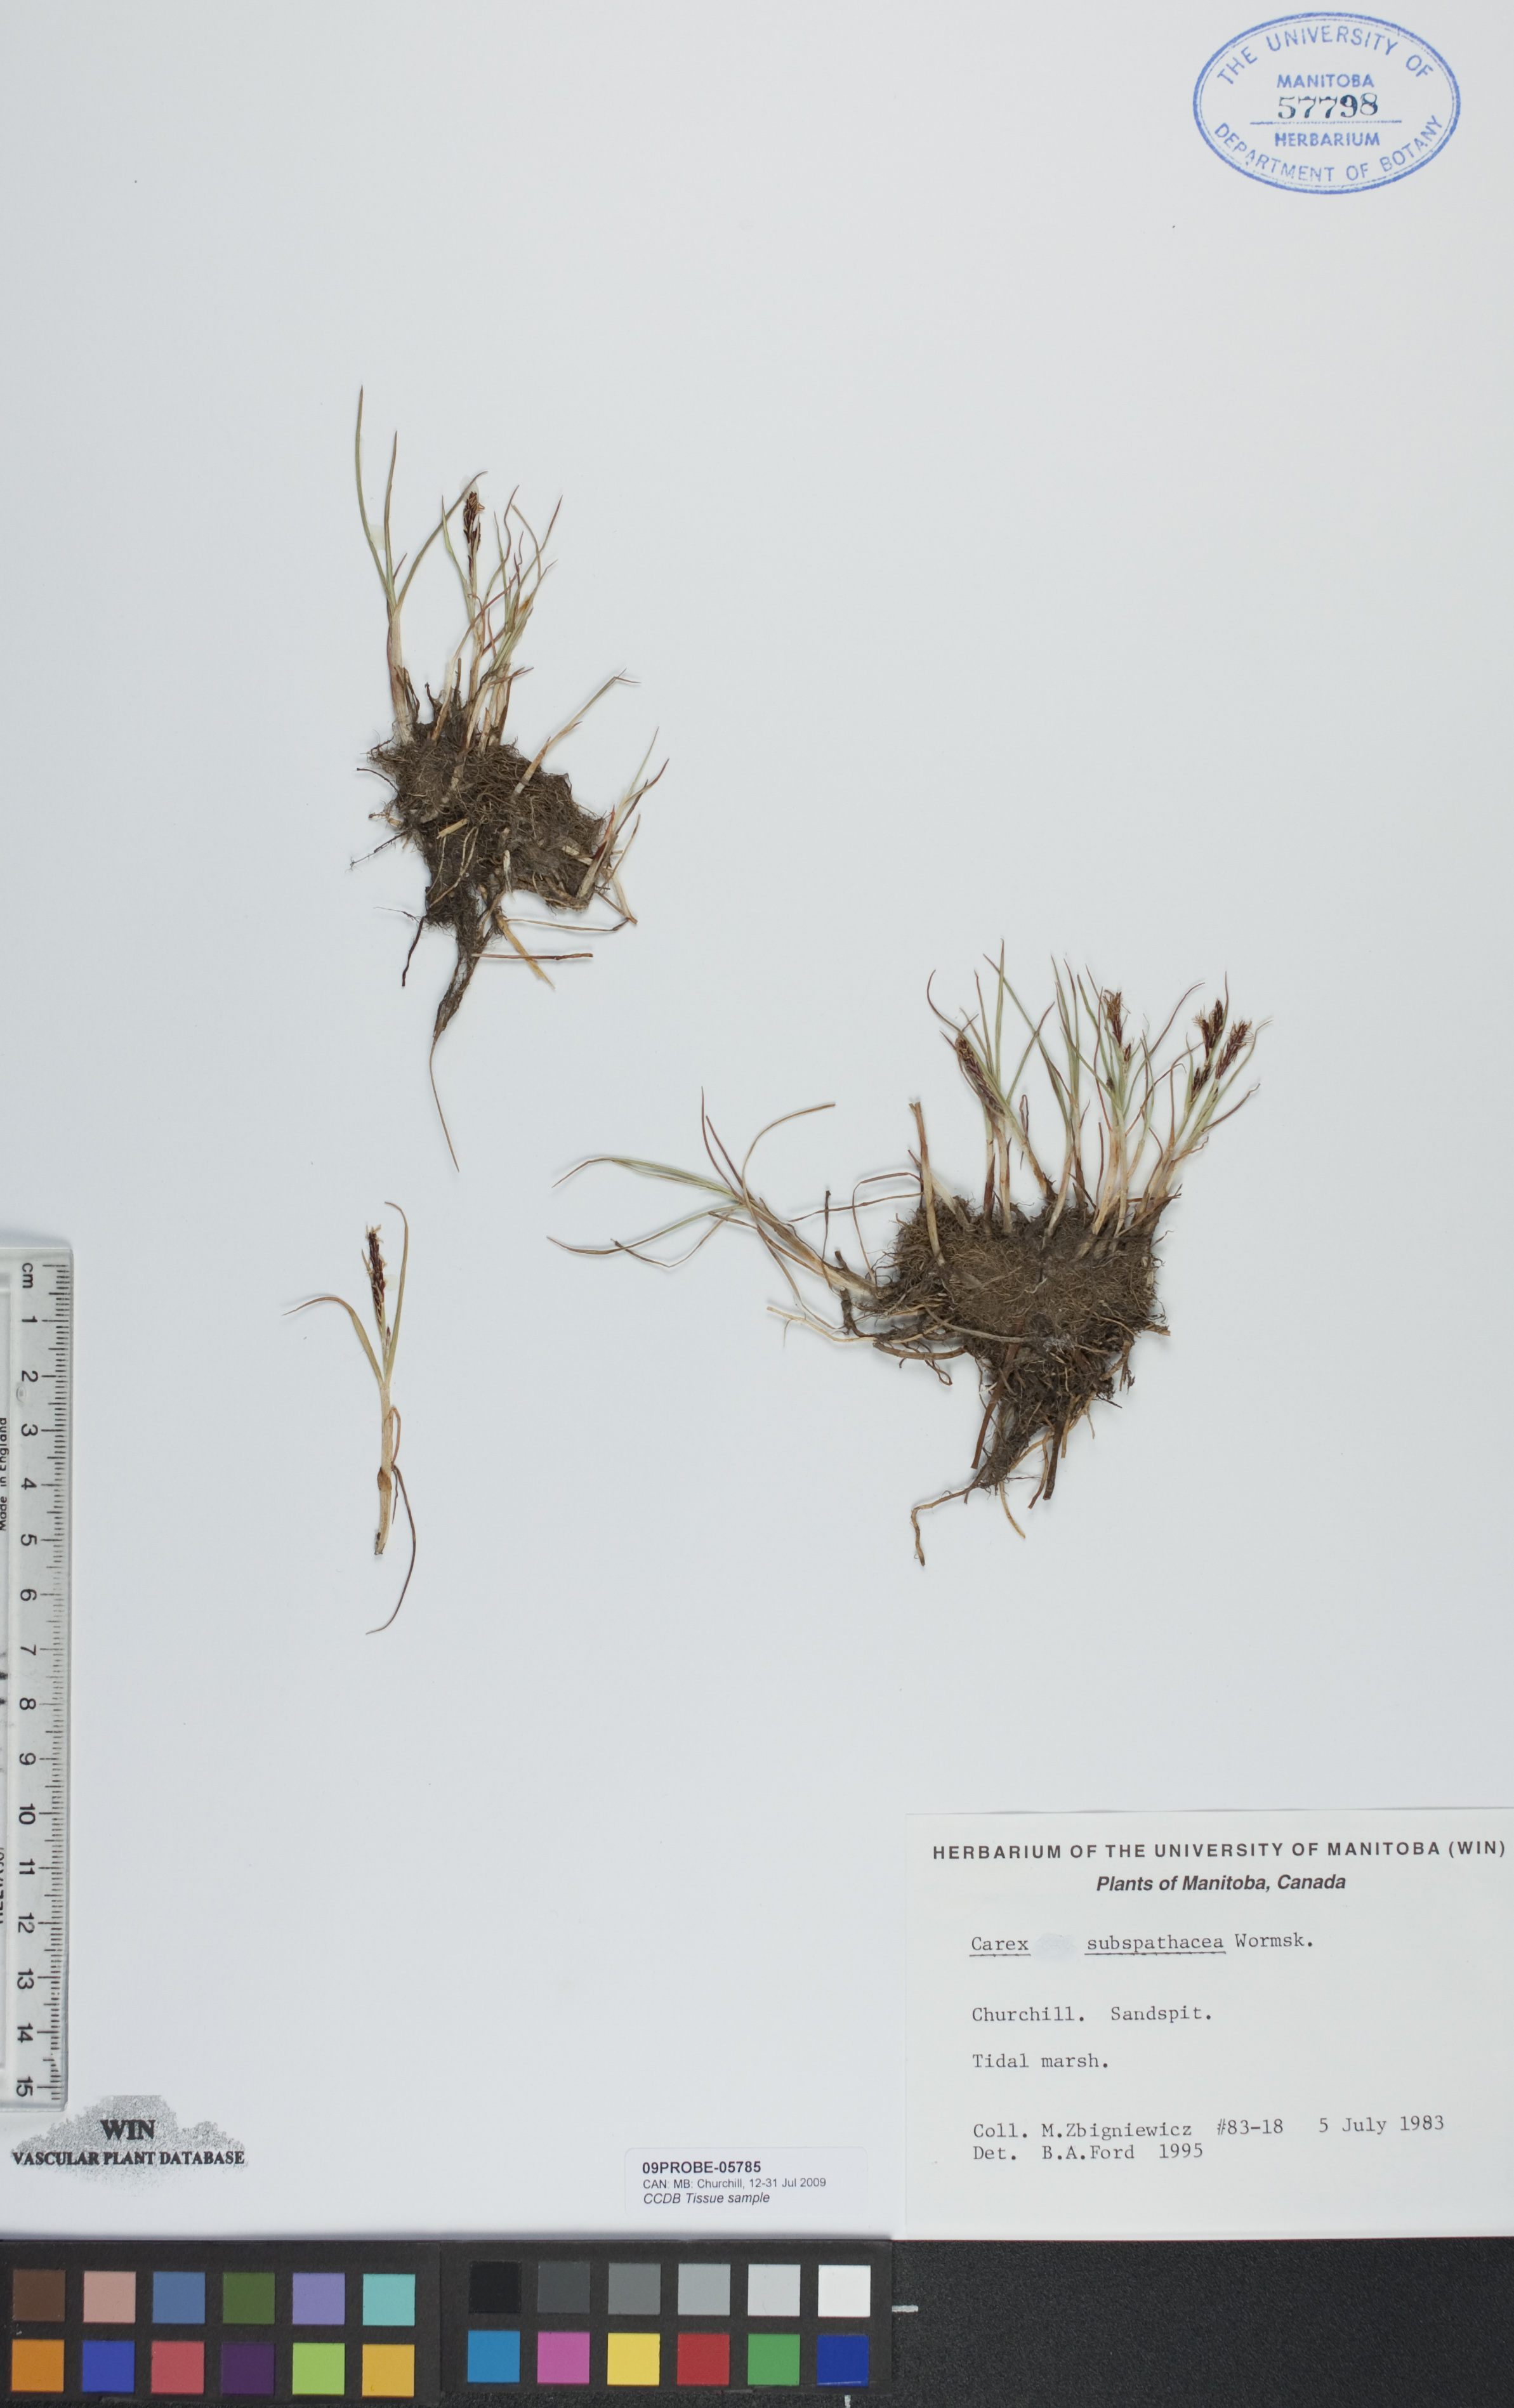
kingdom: Plantae
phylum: Tracheophyta
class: Liliopsida
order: Poales
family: Cyperaceae
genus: Carex
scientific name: Carex subspathacea
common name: Hoppner's sedge
